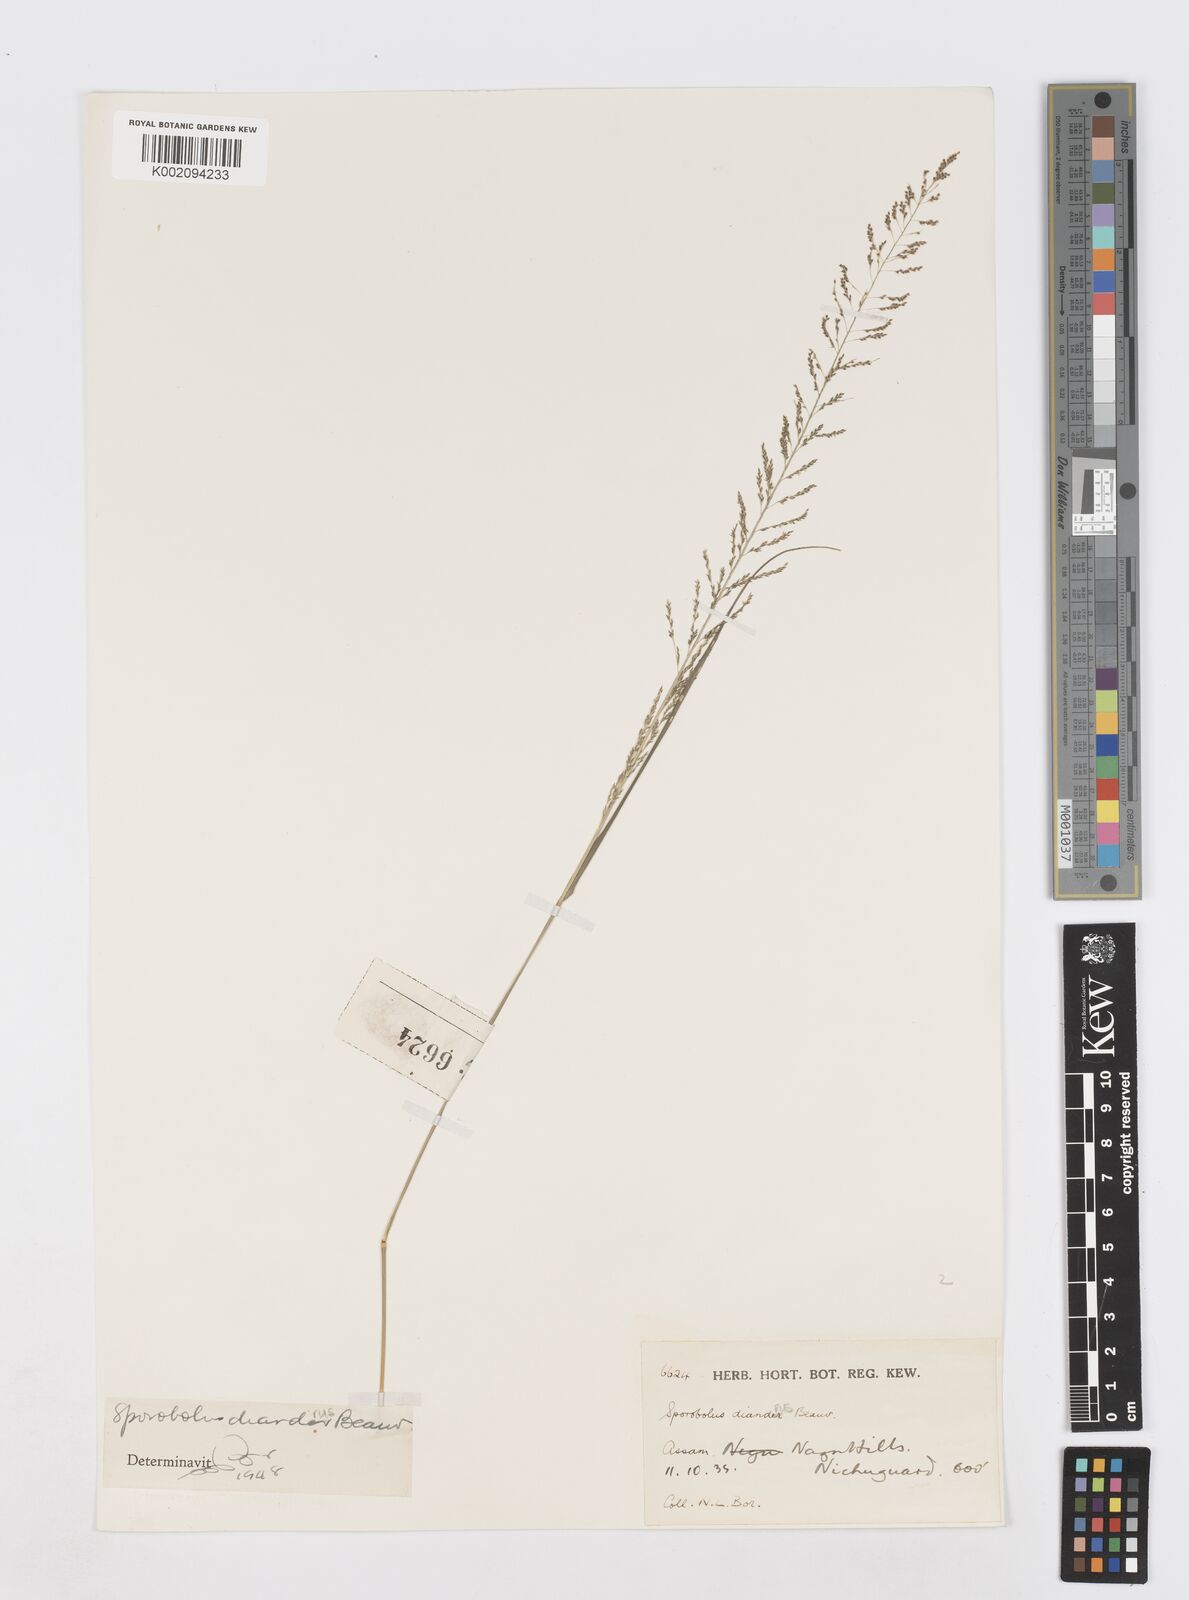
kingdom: Plantae
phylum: Tracheophyta
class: Liliopsida
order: Poales
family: Poaceae
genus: Sporobolus
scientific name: Sporobolus diandrus
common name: Tussock dropseed
